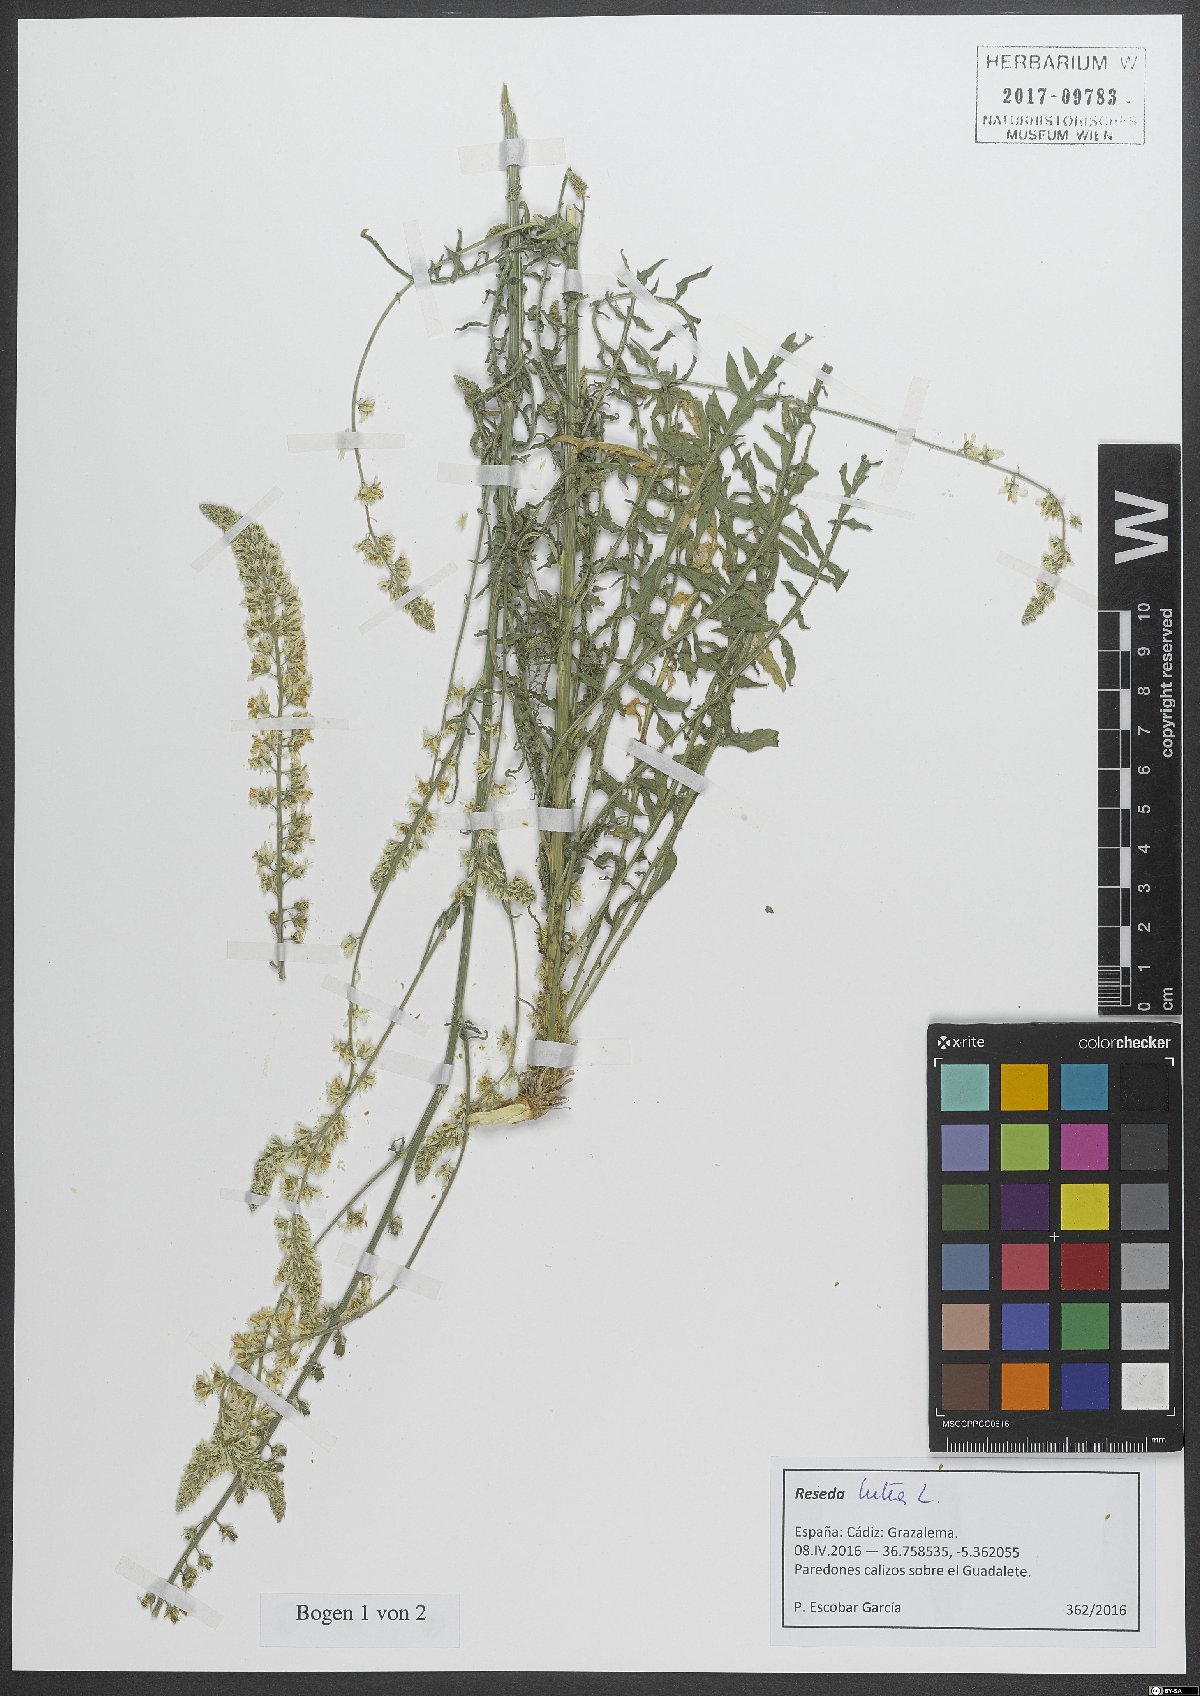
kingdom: Plantae
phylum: Tracheophyta
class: Magnoliopsida
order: Brassicales
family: Resedaceae
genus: Reseda
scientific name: Reseda lutea
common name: Wild mignonette
